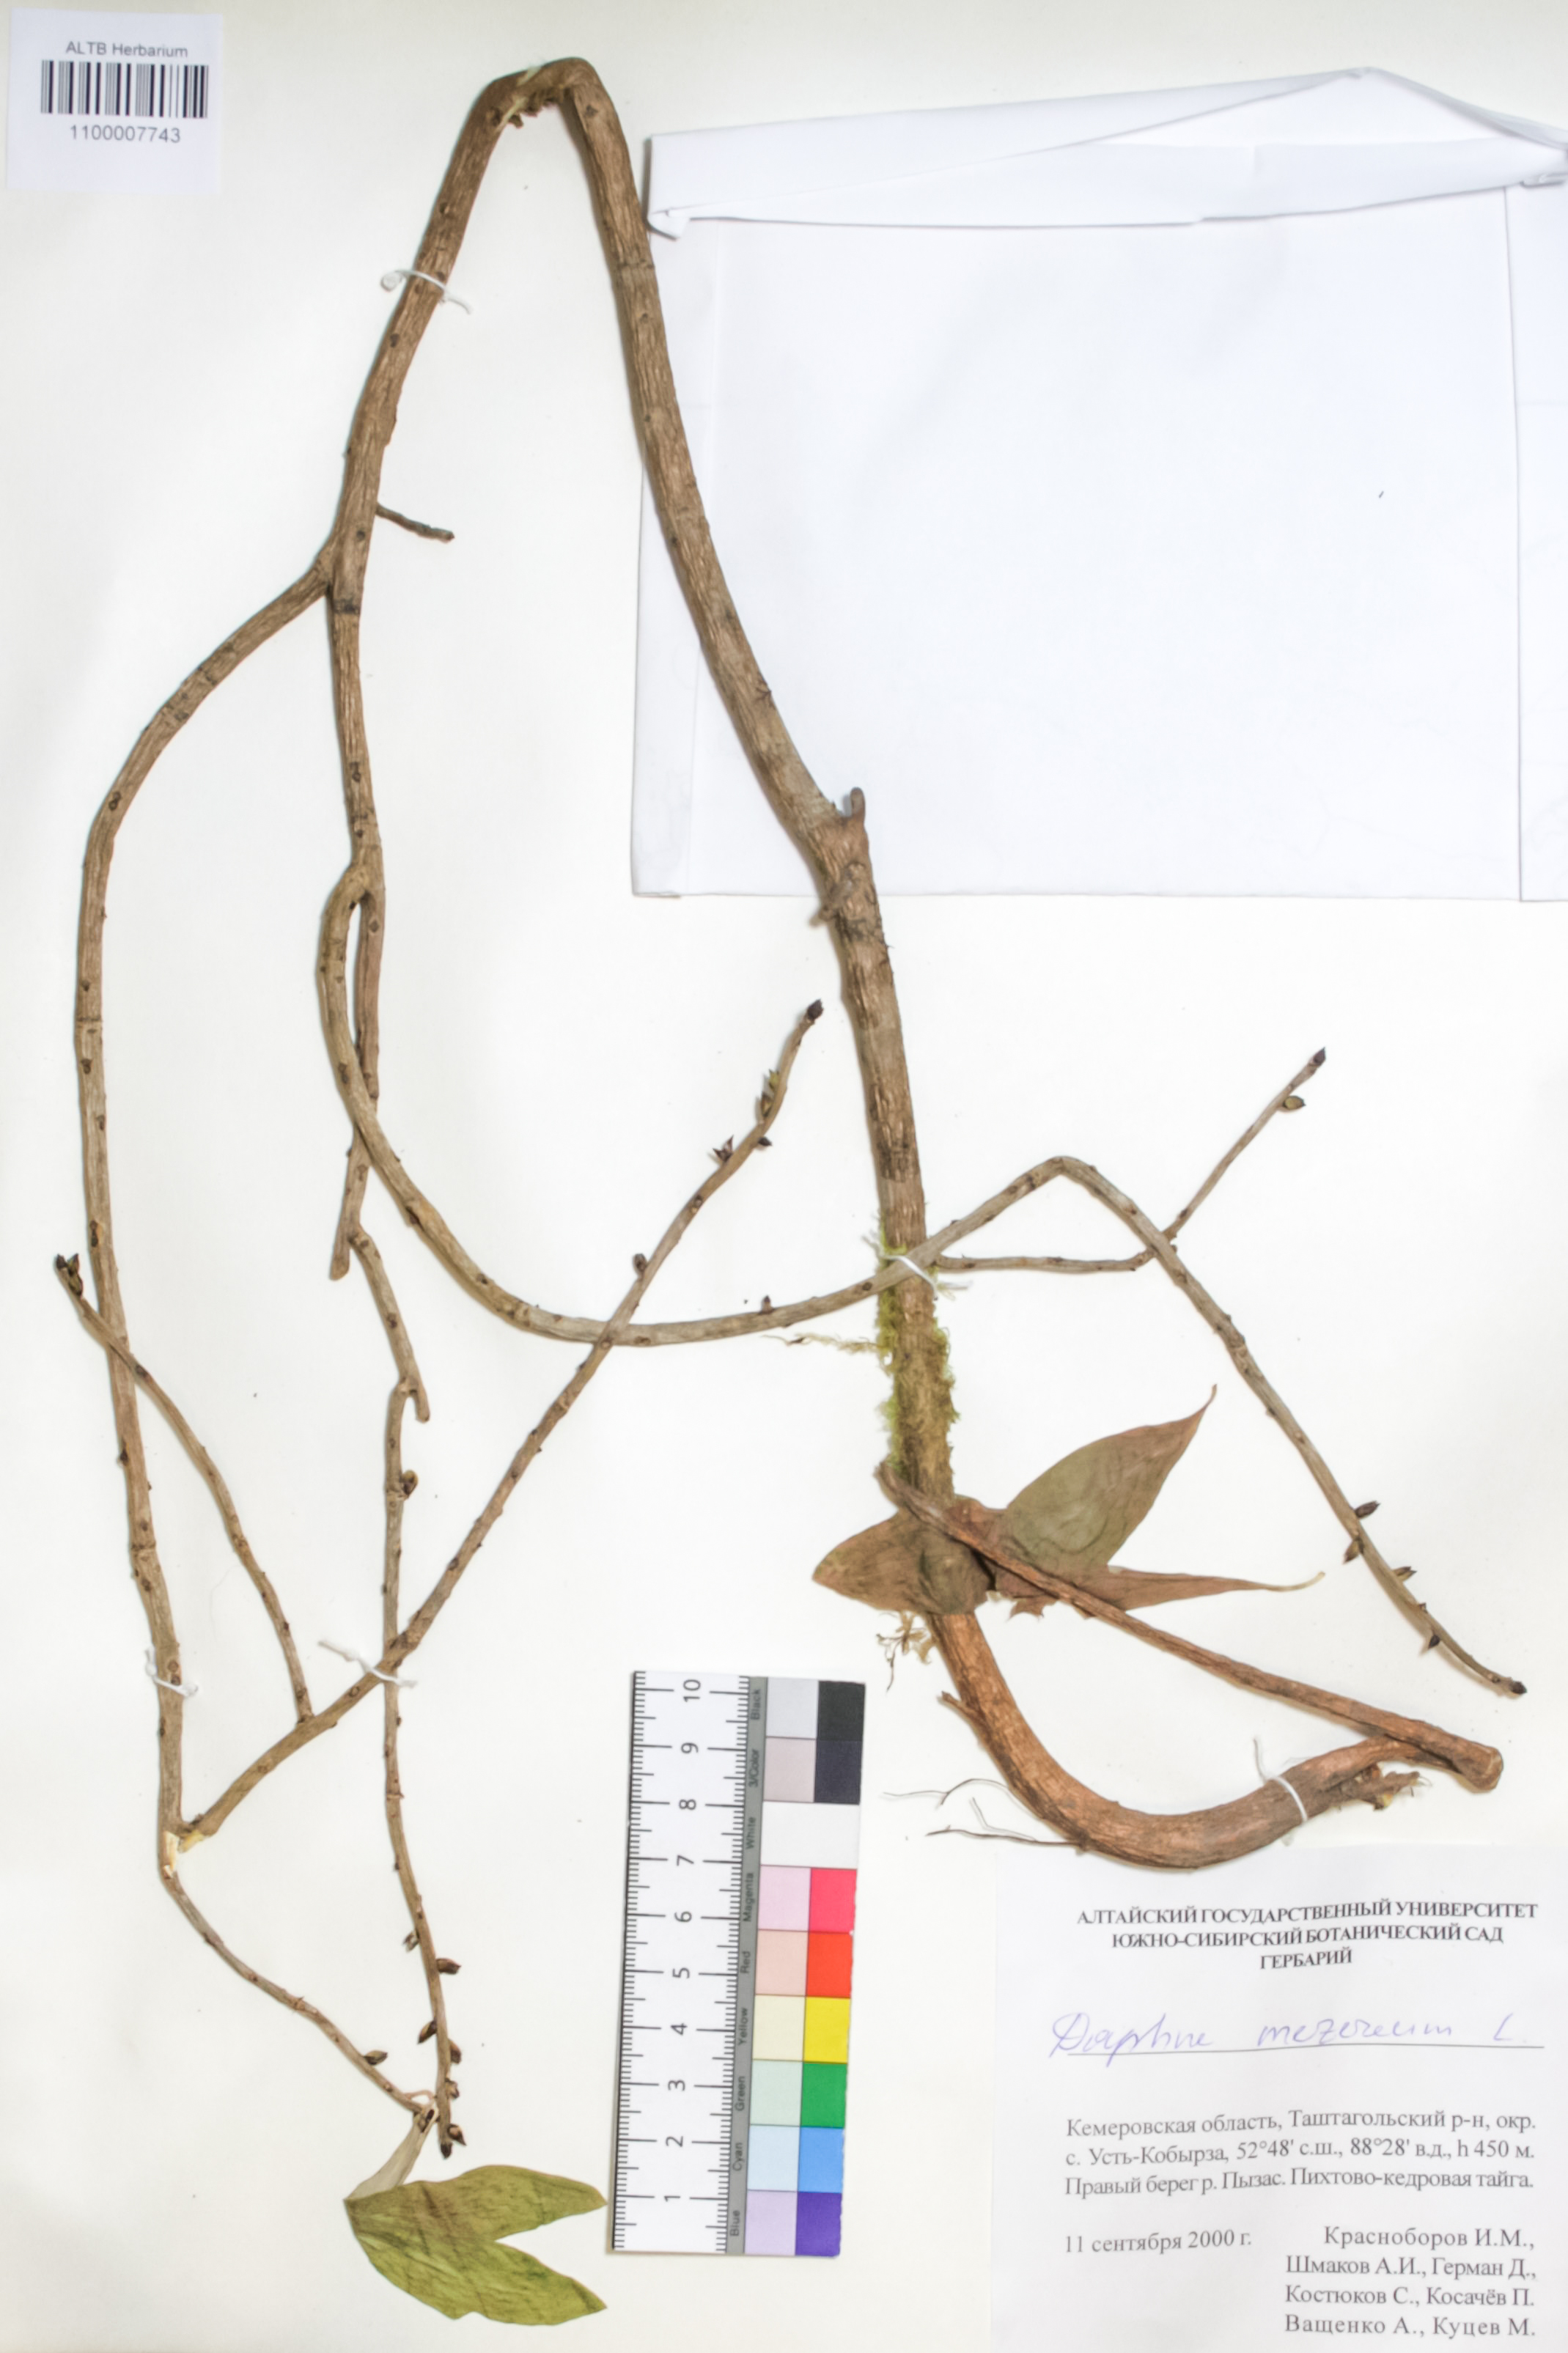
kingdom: Plantae
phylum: Tracheophyta
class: Magnoliopsida
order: Malvales
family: Thymelaeaceae
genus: Daphne
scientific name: Daphne mezereum
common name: Mezereon
